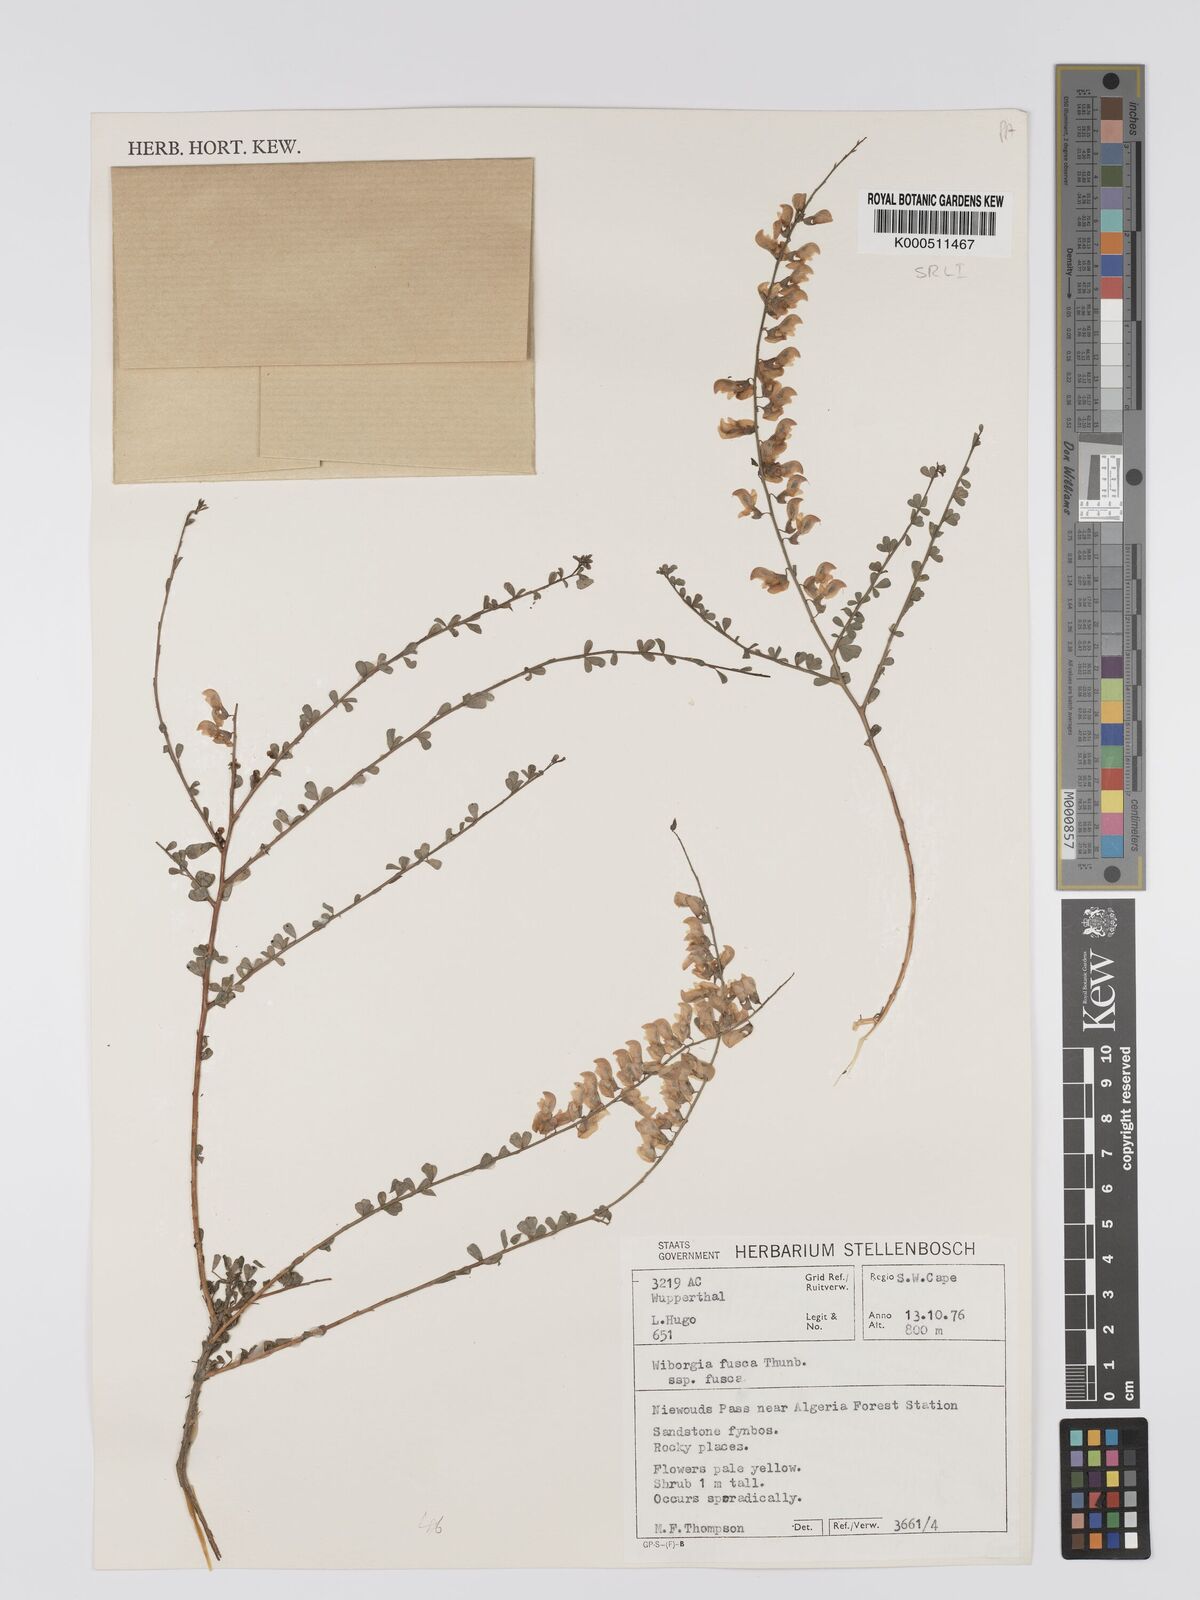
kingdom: Plantae
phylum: Tracheophyta
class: Magnoliopsida
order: Fabales
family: Fabaceae
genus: Wiborgia
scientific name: Wiborgia fusca
